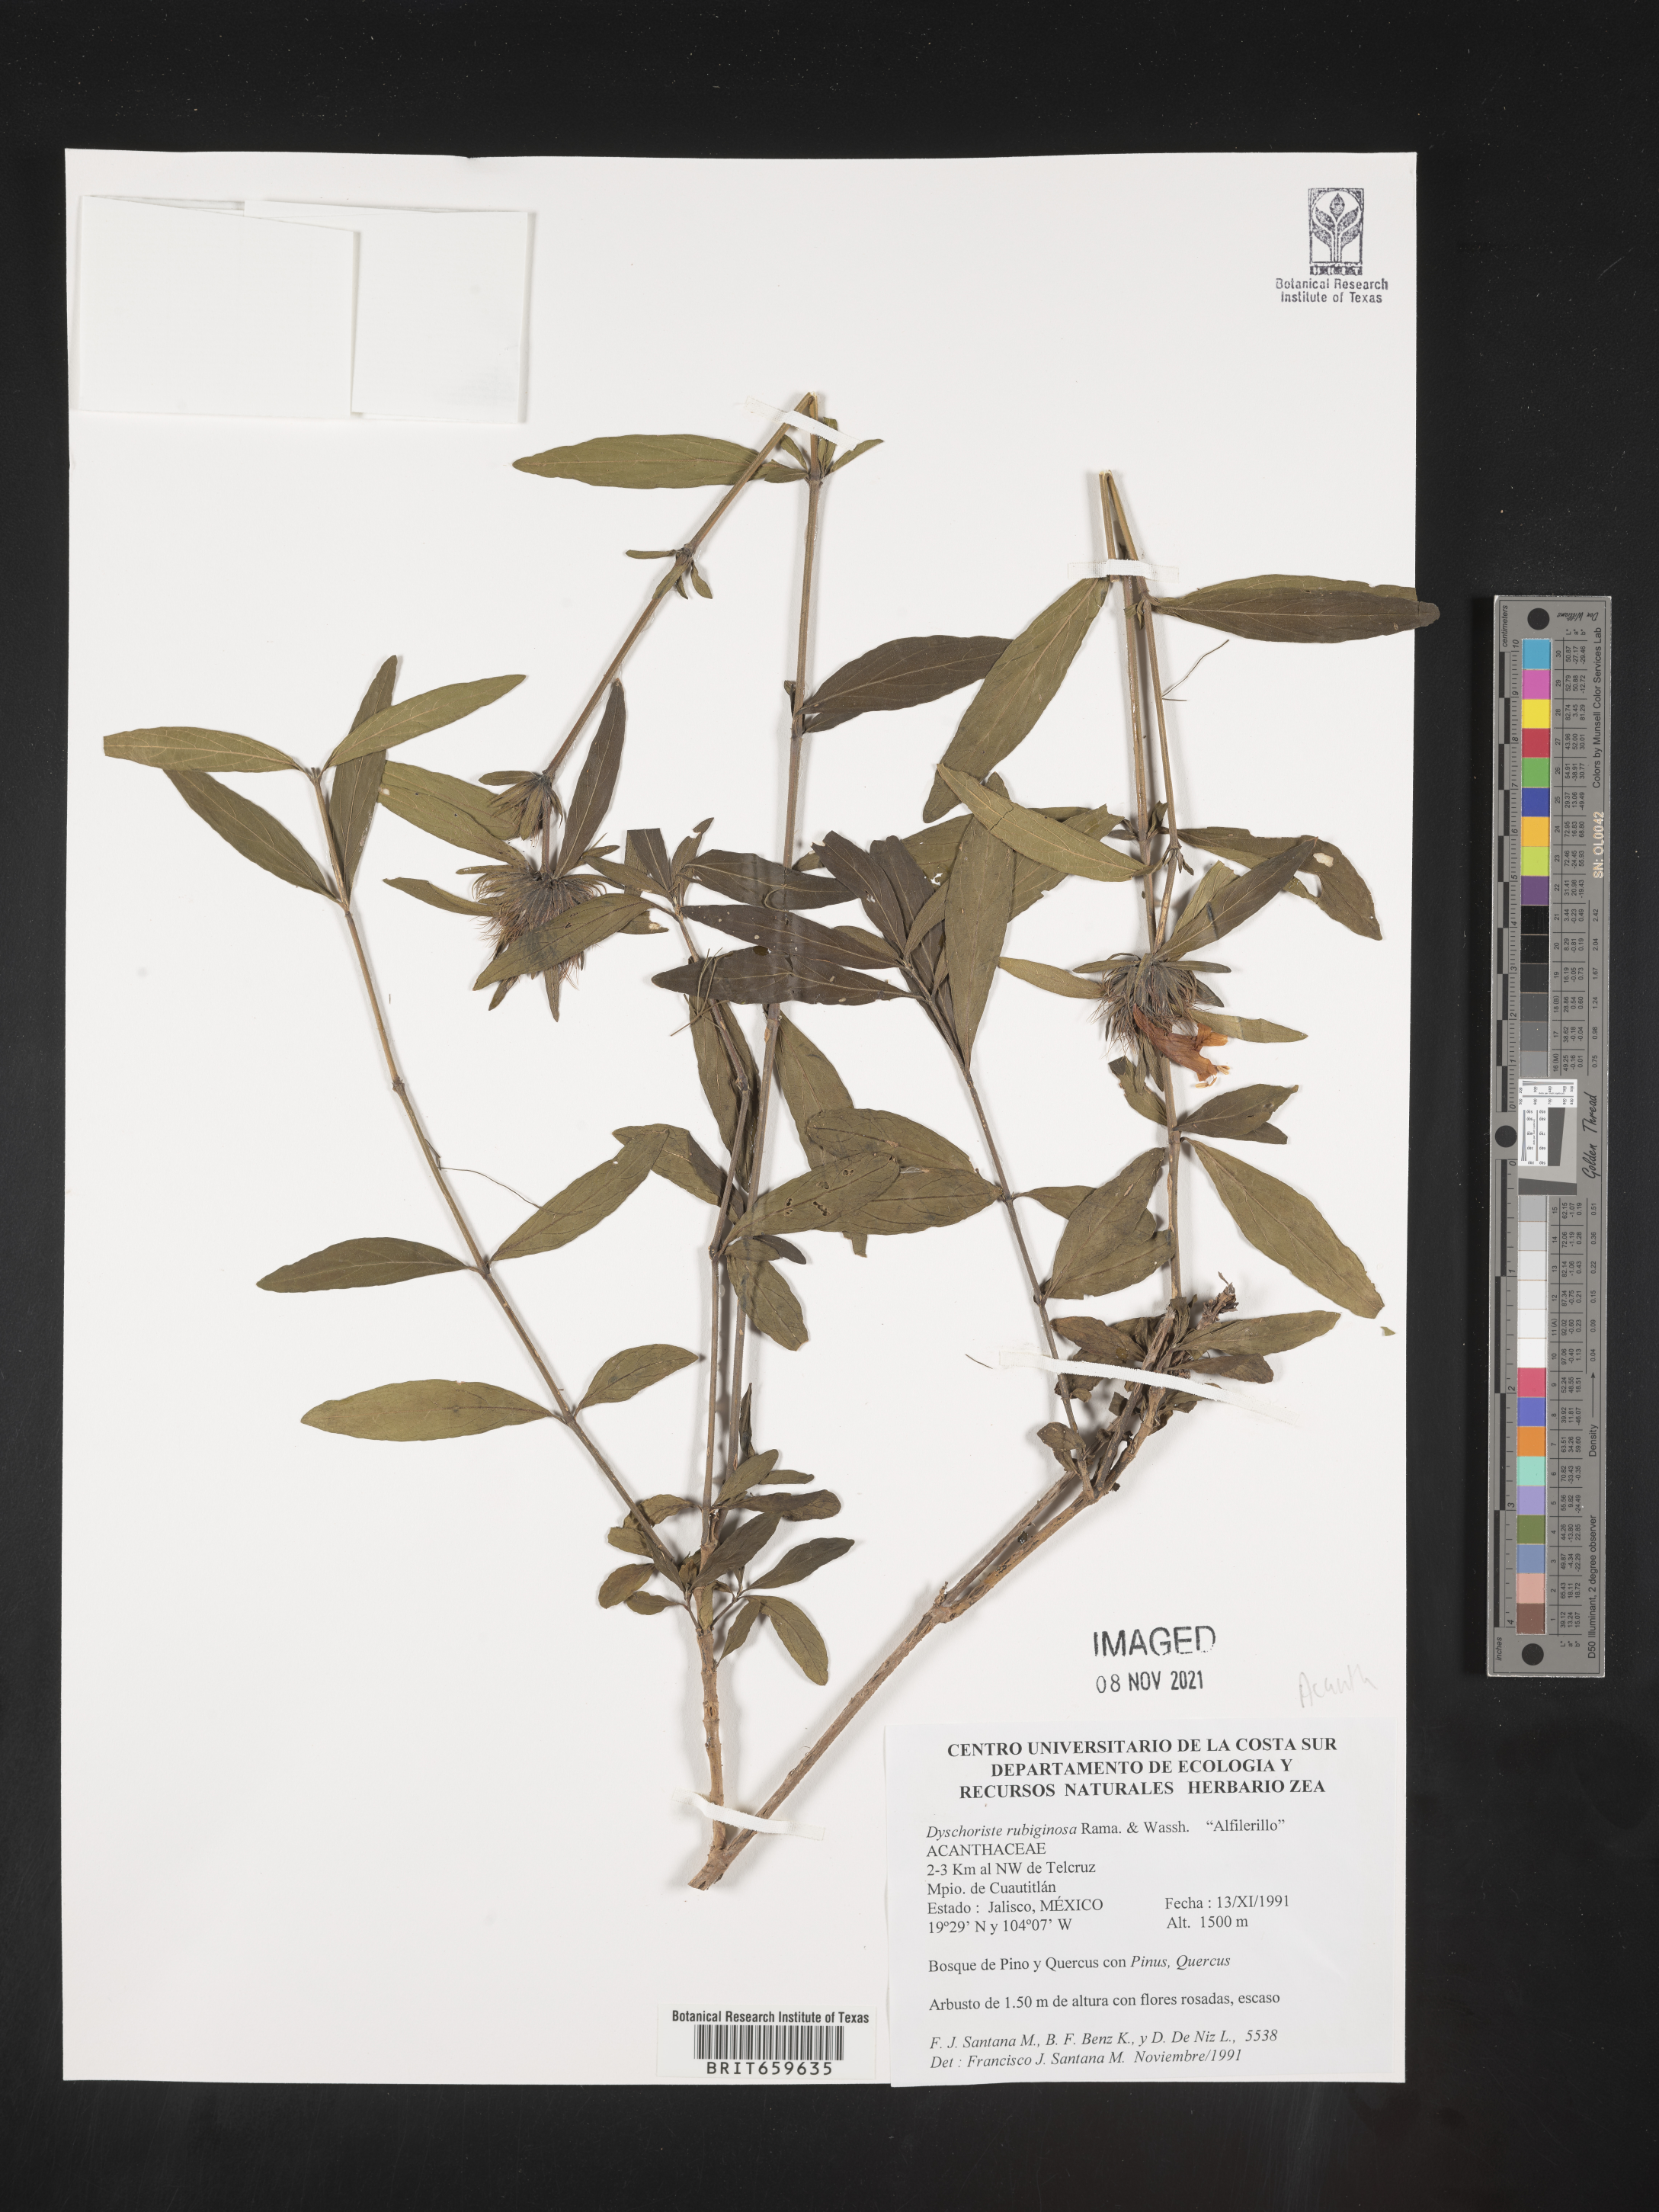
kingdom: Plantae
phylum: Tracheophyta
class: Magnoliopsida
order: Lamiales
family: Acanthaceae
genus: Dyschoriste
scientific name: Dyschoriste
